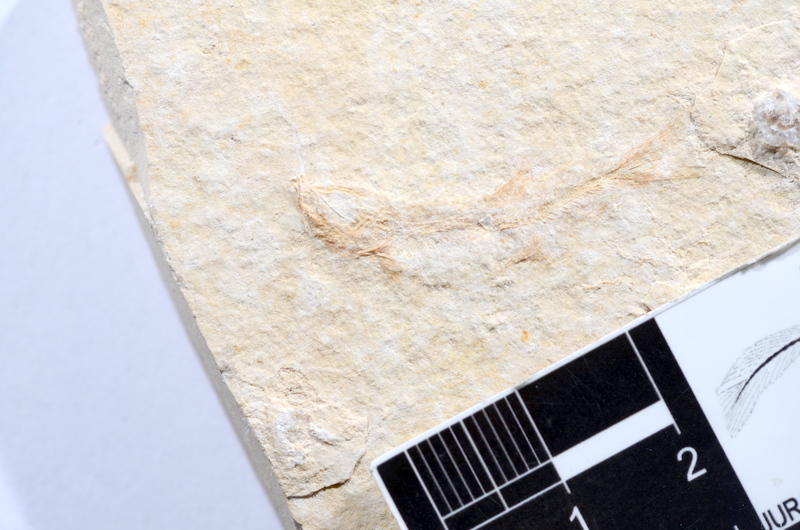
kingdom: Animalia
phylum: Chordata
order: Salmoniformes
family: Orthogonikleithridae
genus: Leptolepides
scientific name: Leptolepides sprattiformis
